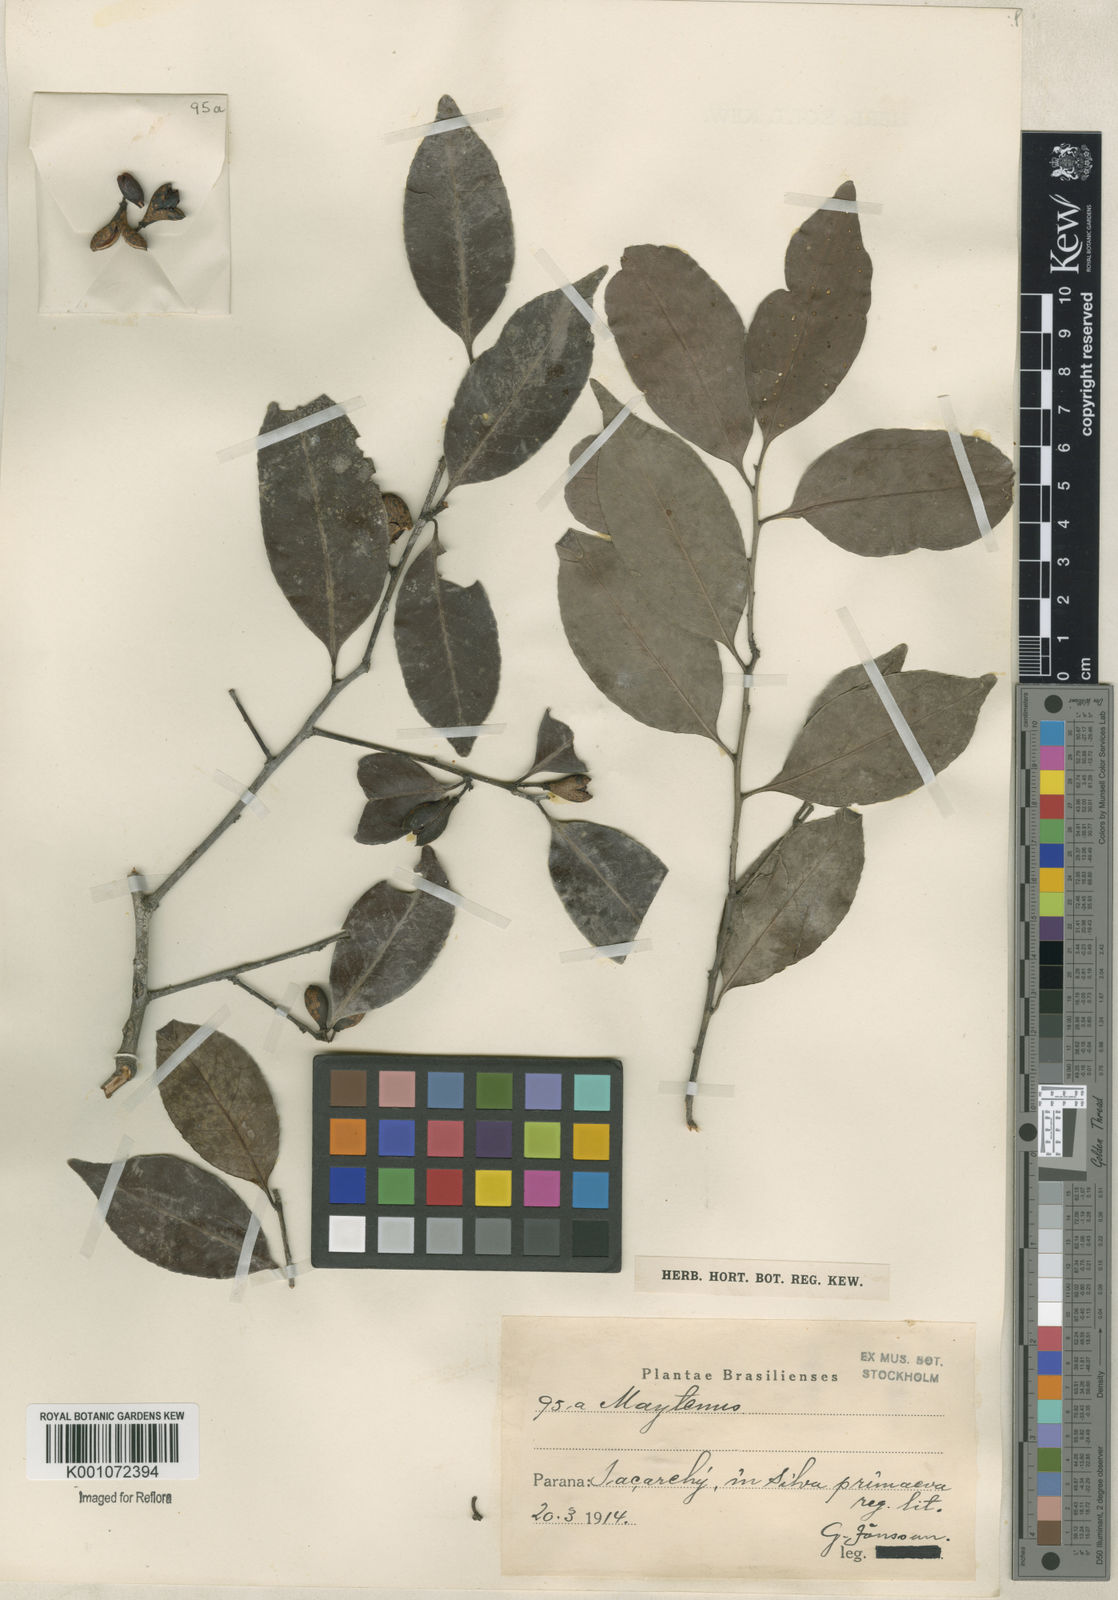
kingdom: Plantae
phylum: Tracheophyta
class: Magnoliopsida
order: Celastrales
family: Celastraceae
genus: Maytenus
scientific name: Maytenus
